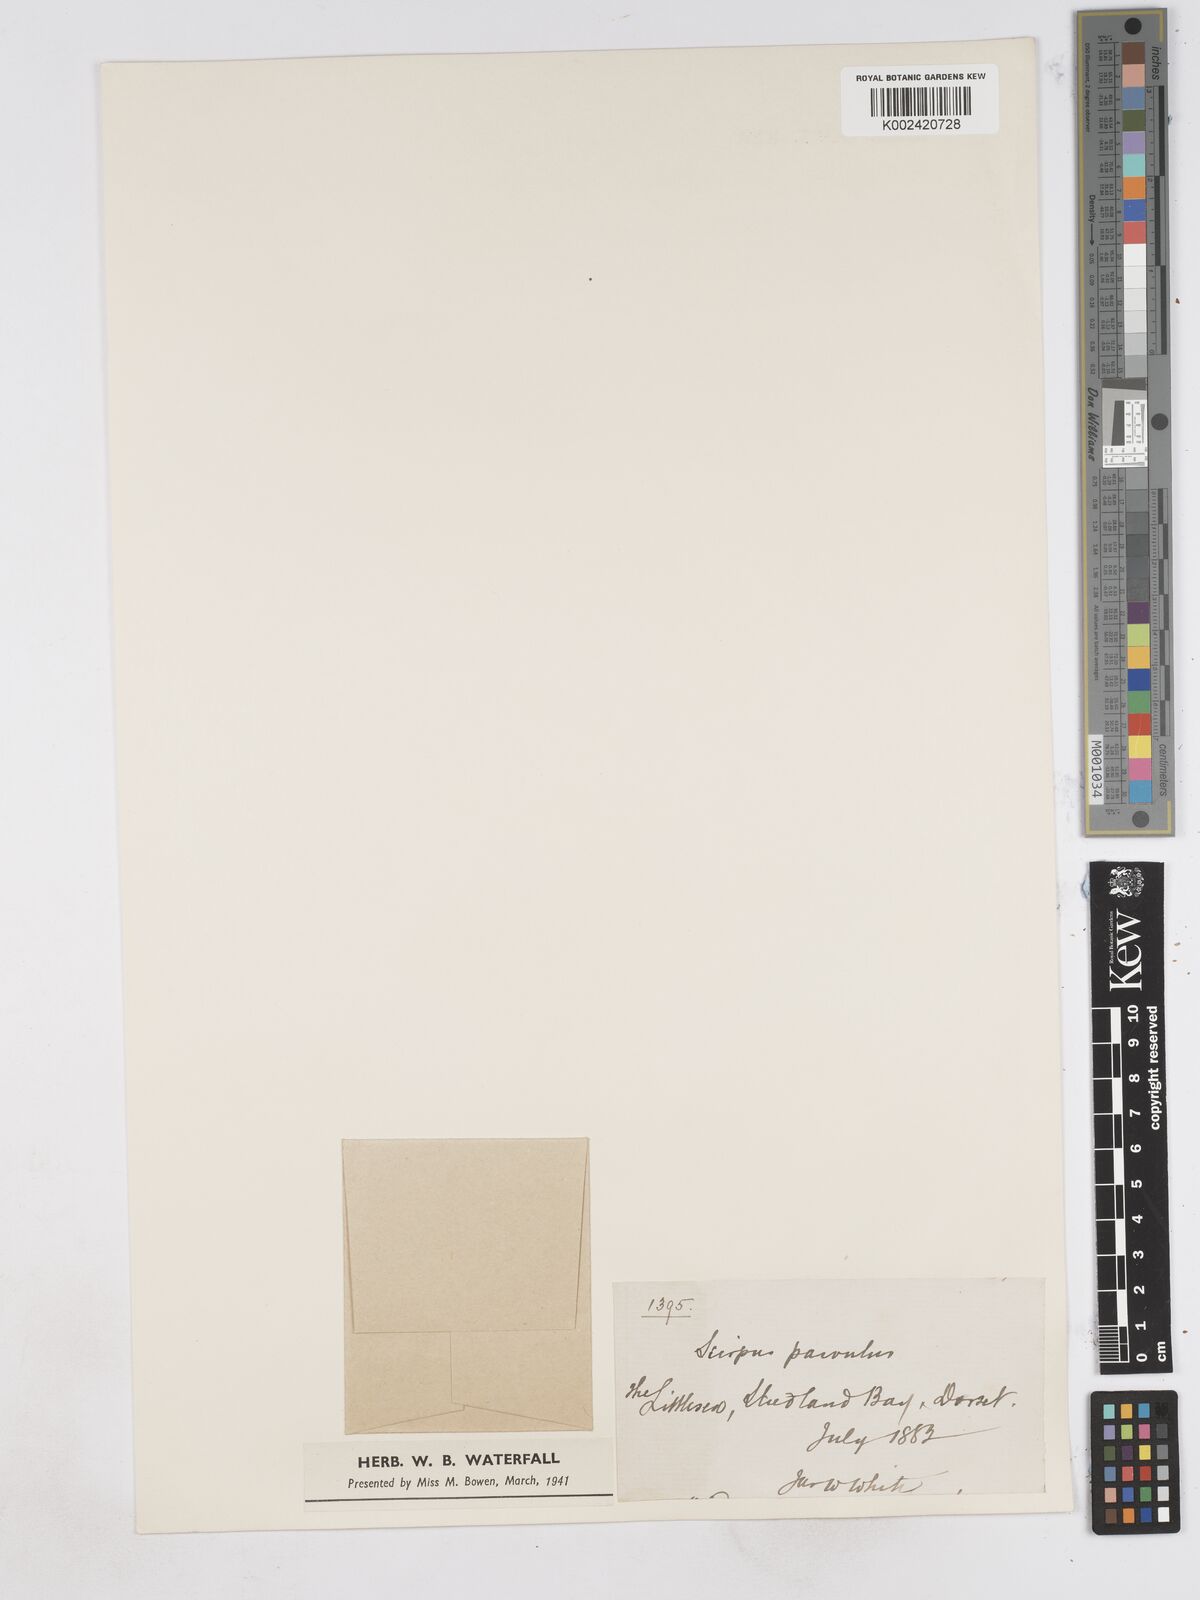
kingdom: Plantae
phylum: Tracheophyta
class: Liliopsida
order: Poales
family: Cyperaceae
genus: Eleocharis
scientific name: Eleocharis parvula
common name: Dwarf spike-rush
